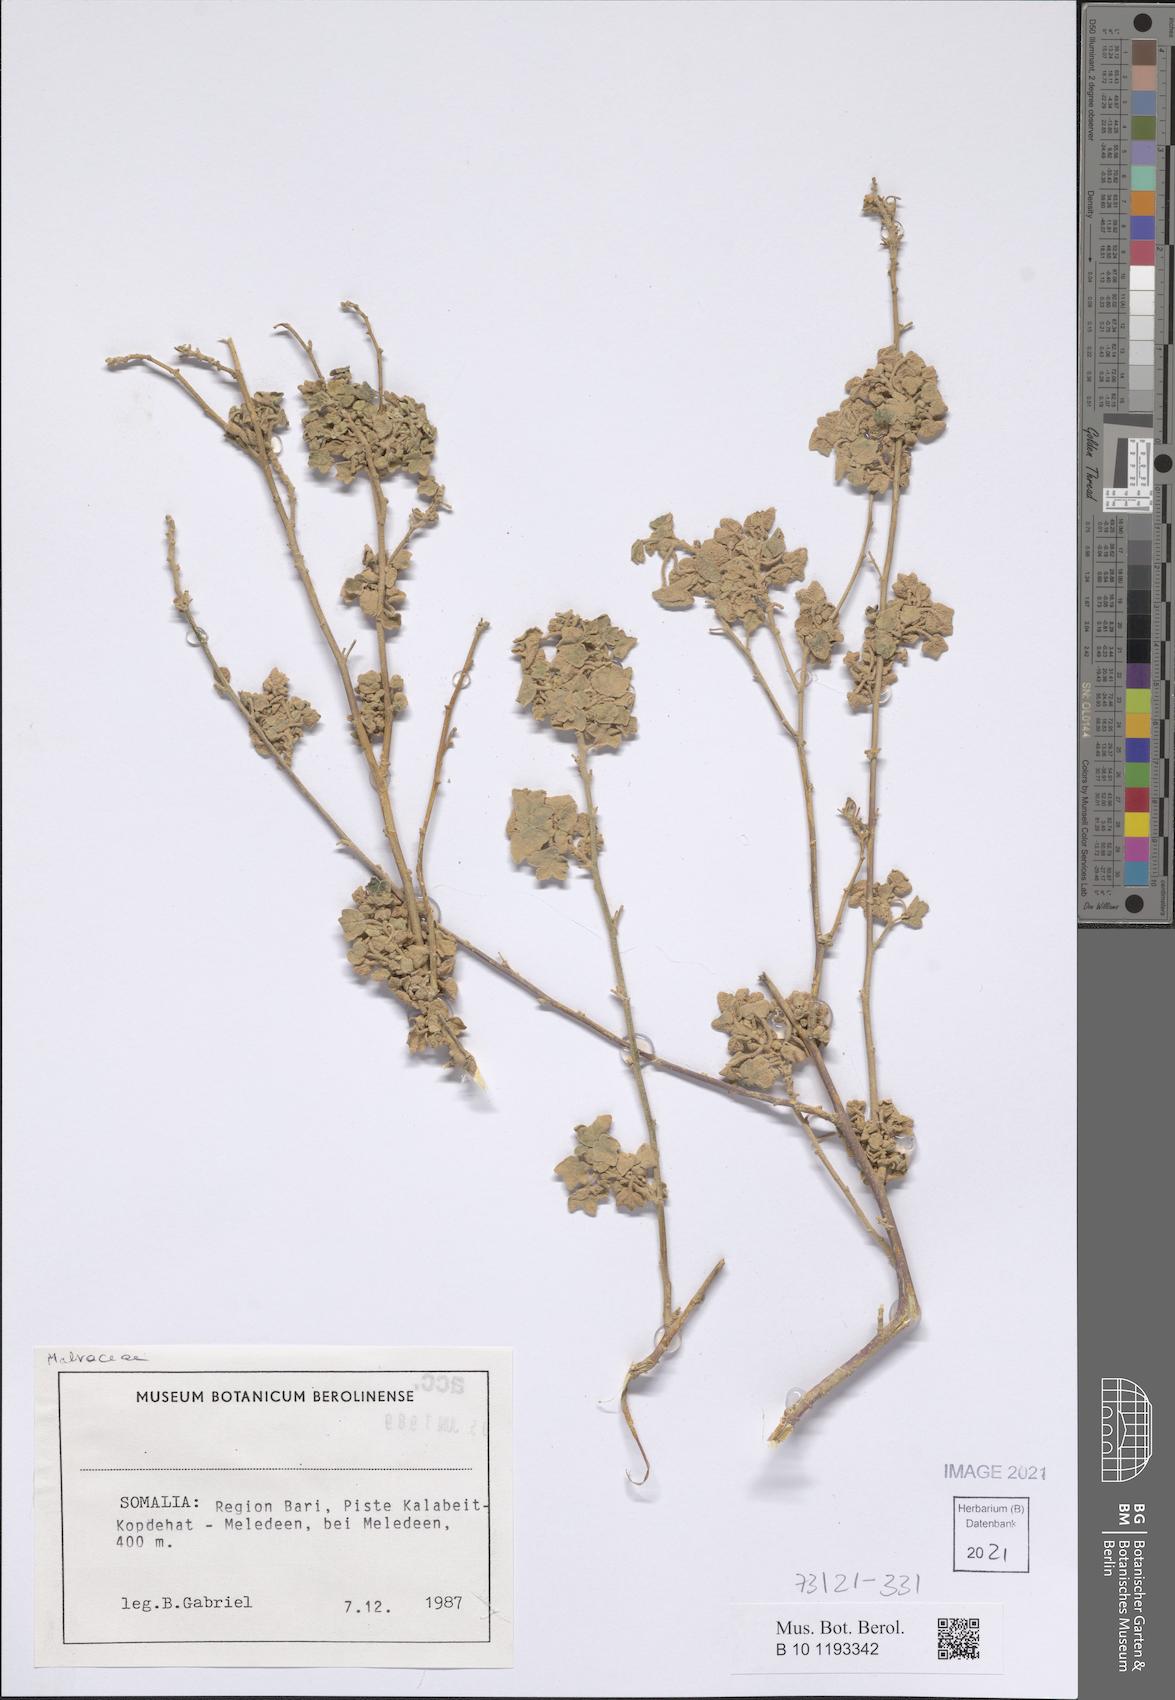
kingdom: Plantae
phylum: Tracheophyta
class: Magnoliopsida
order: Malvales
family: Malvaceae
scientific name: Malvaceae
